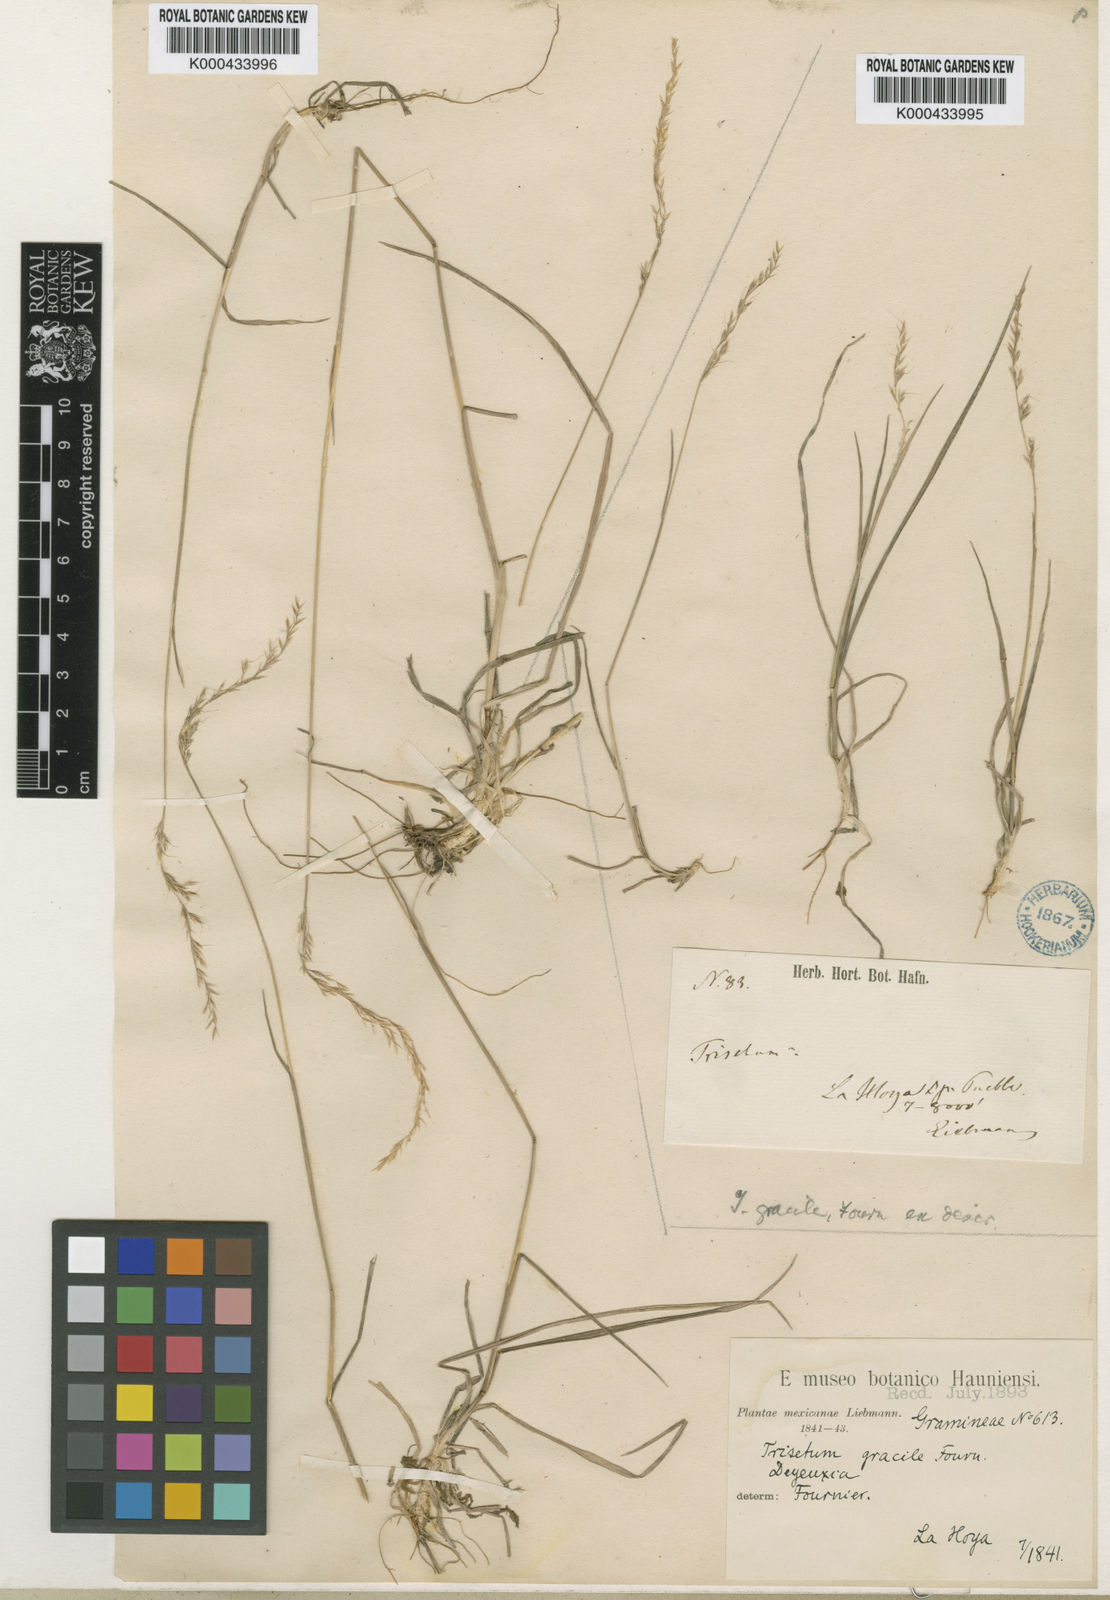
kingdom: Plantae
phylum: Tracheophyta
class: Liliopsida
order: Poales
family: Poaceae
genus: Peyritschia
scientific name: Peyritschia irazuensis
